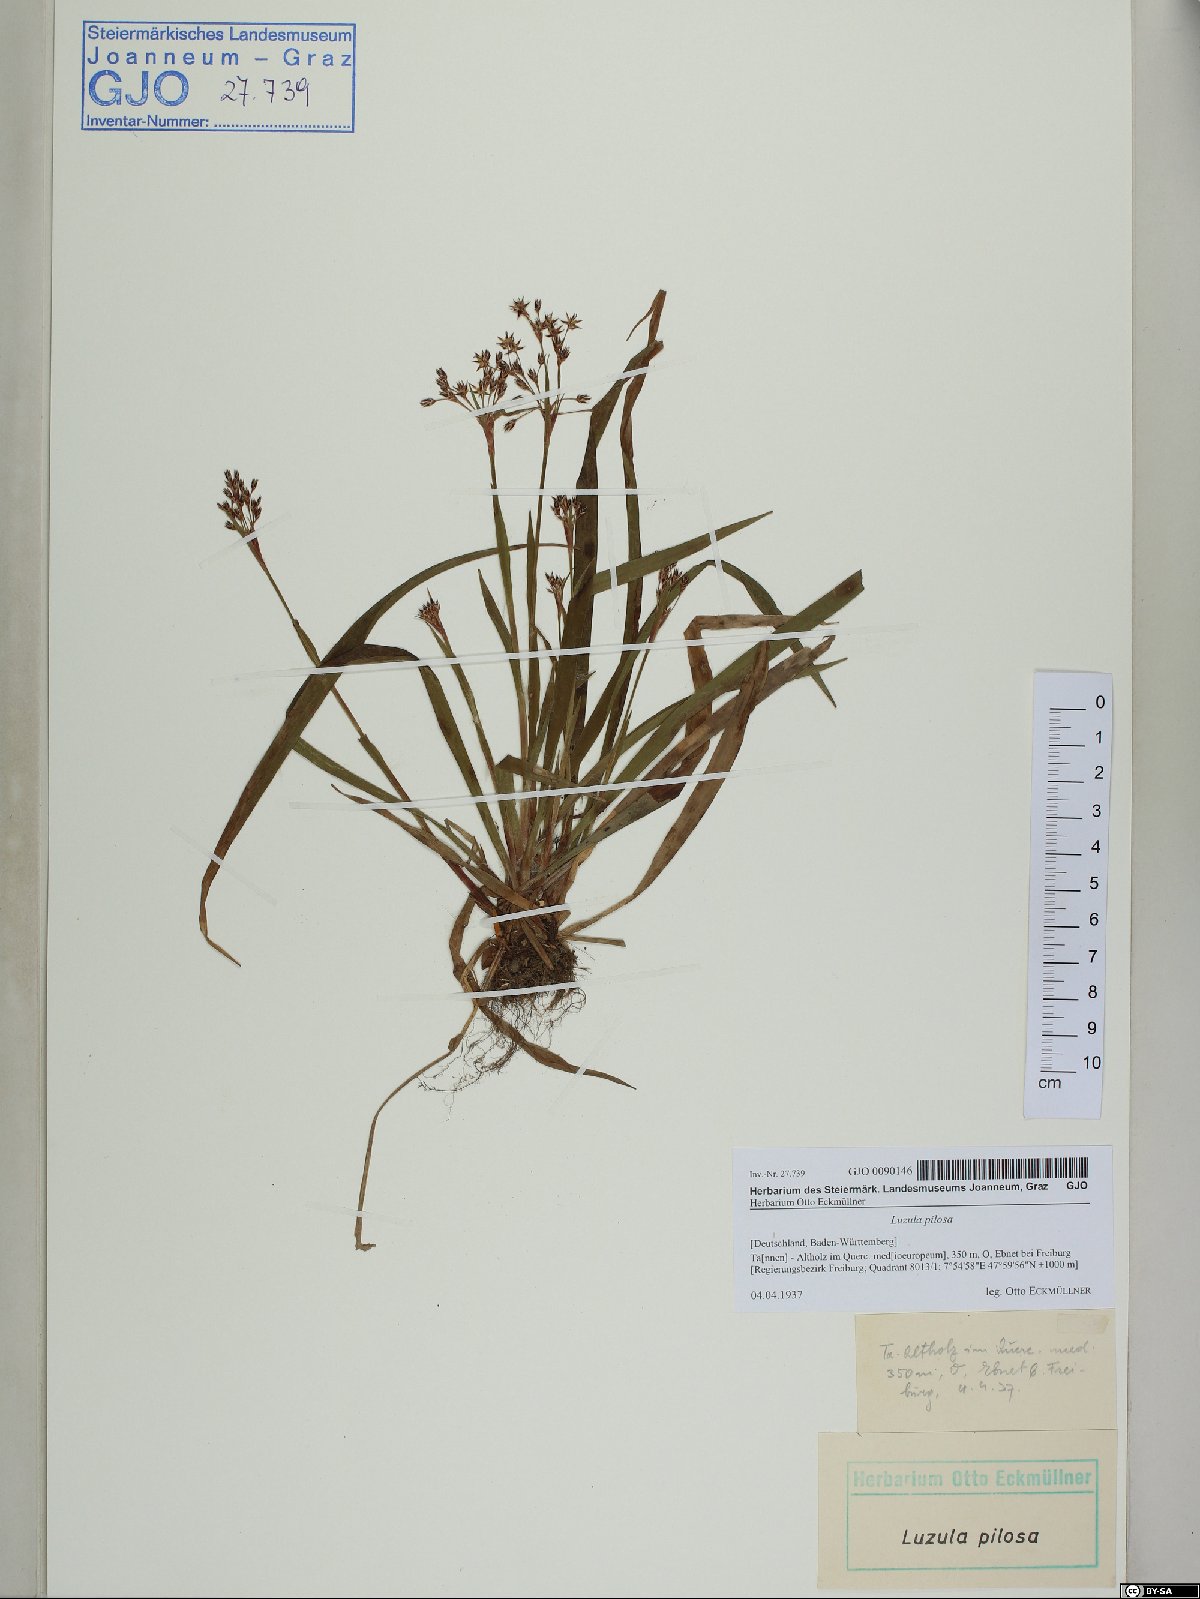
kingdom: Plantae
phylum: Tracheophyta
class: Liliopsida
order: Poales
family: Juncaceae
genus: Luzula
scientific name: Luzula pilosa
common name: Hairy wood-rush
